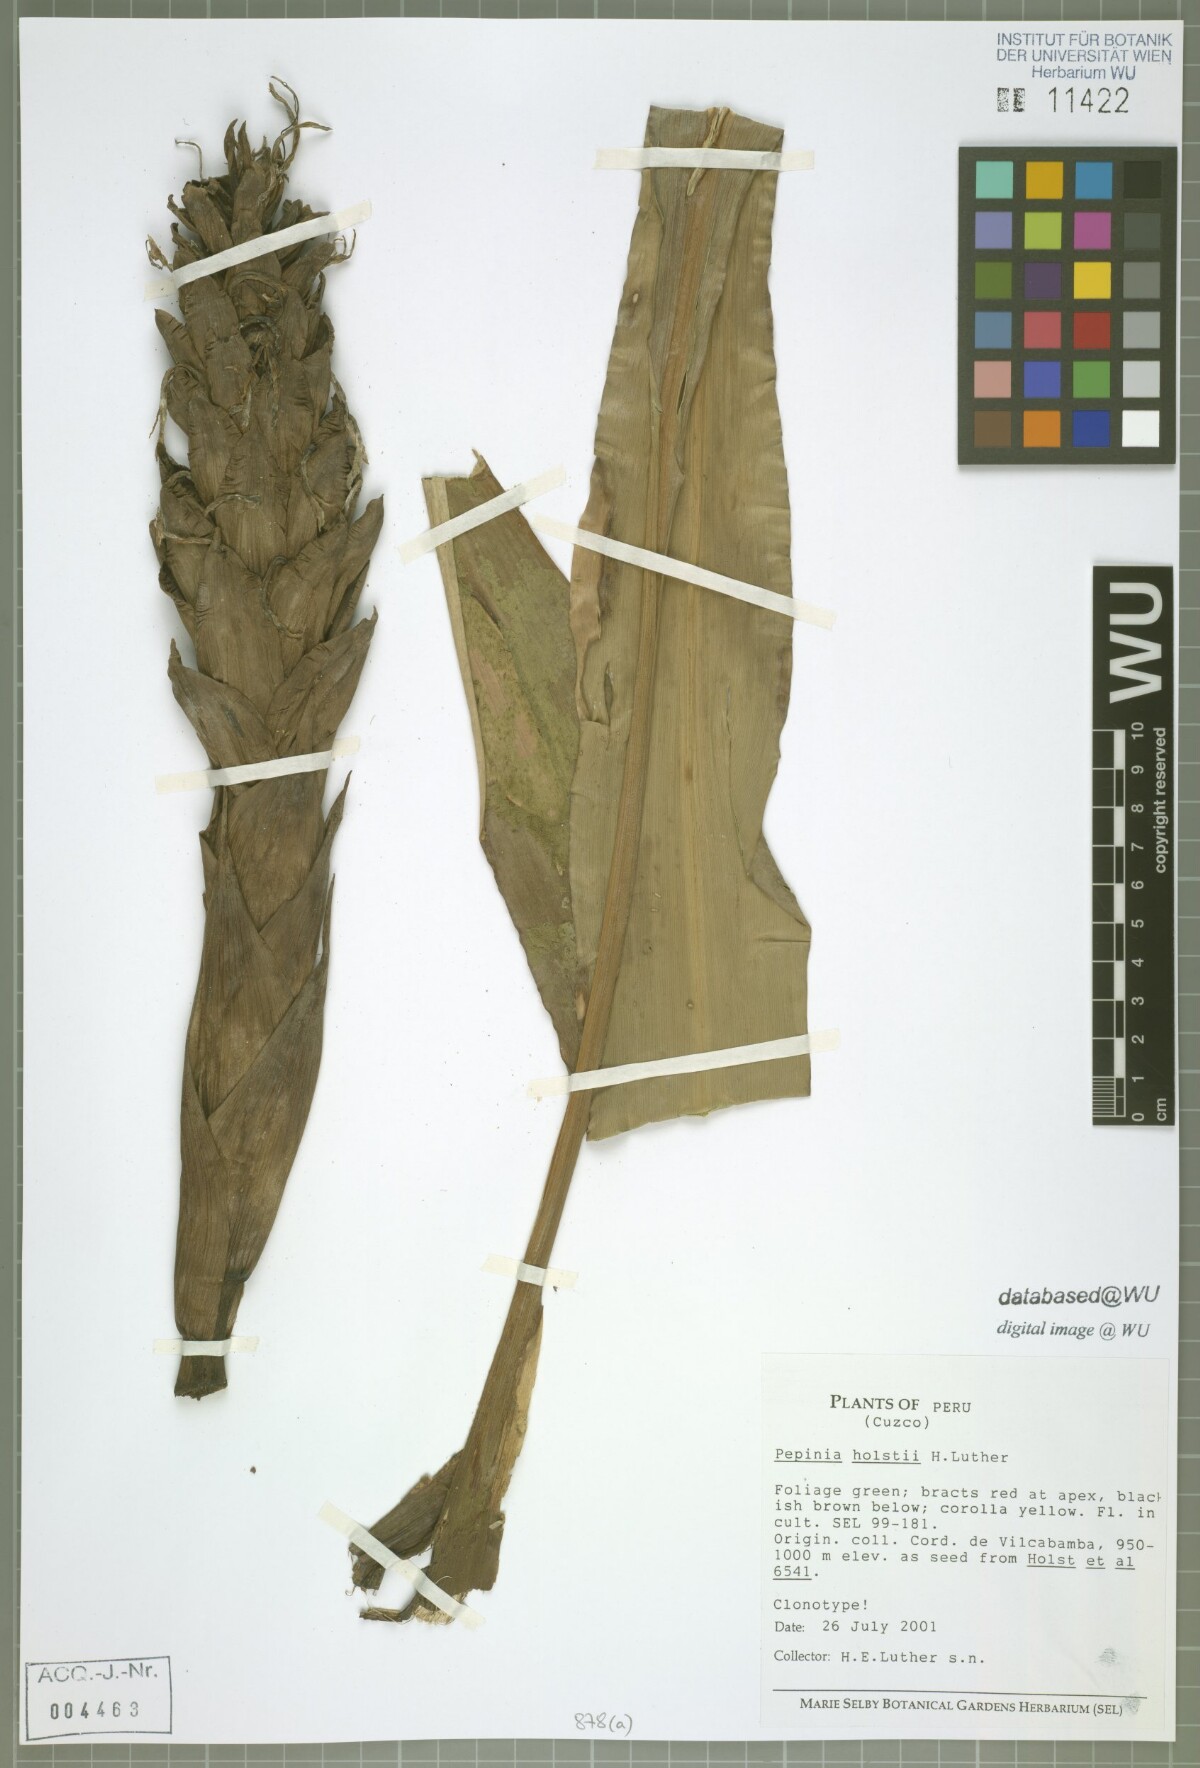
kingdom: Plantae
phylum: Tracheophyta
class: Liliopsida
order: Poales
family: Bromeliaceae
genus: Pitcairnia
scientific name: Pitcairnia holstii
